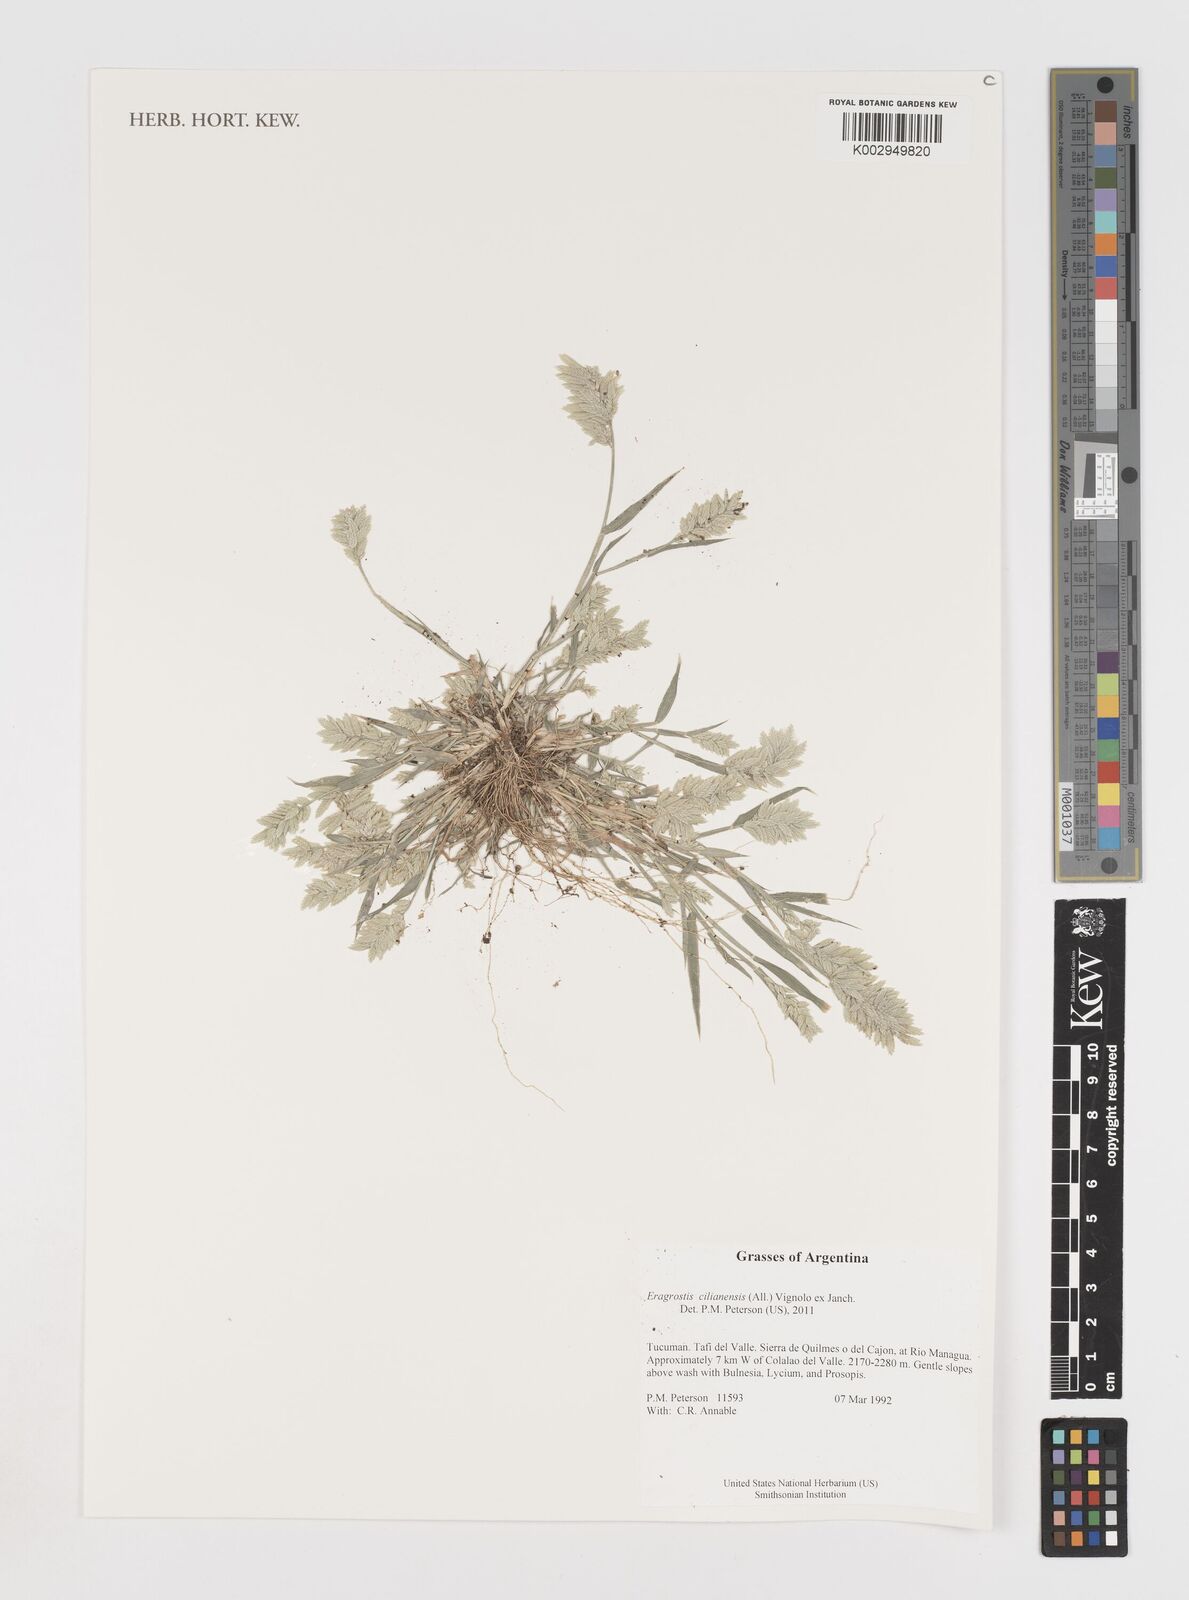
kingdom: Plantae
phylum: Tracheophyta
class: Liliopsida
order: Poales
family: Poaceae
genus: Eragrostis
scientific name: Eragrostis cilianensis
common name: Stinkgrass
